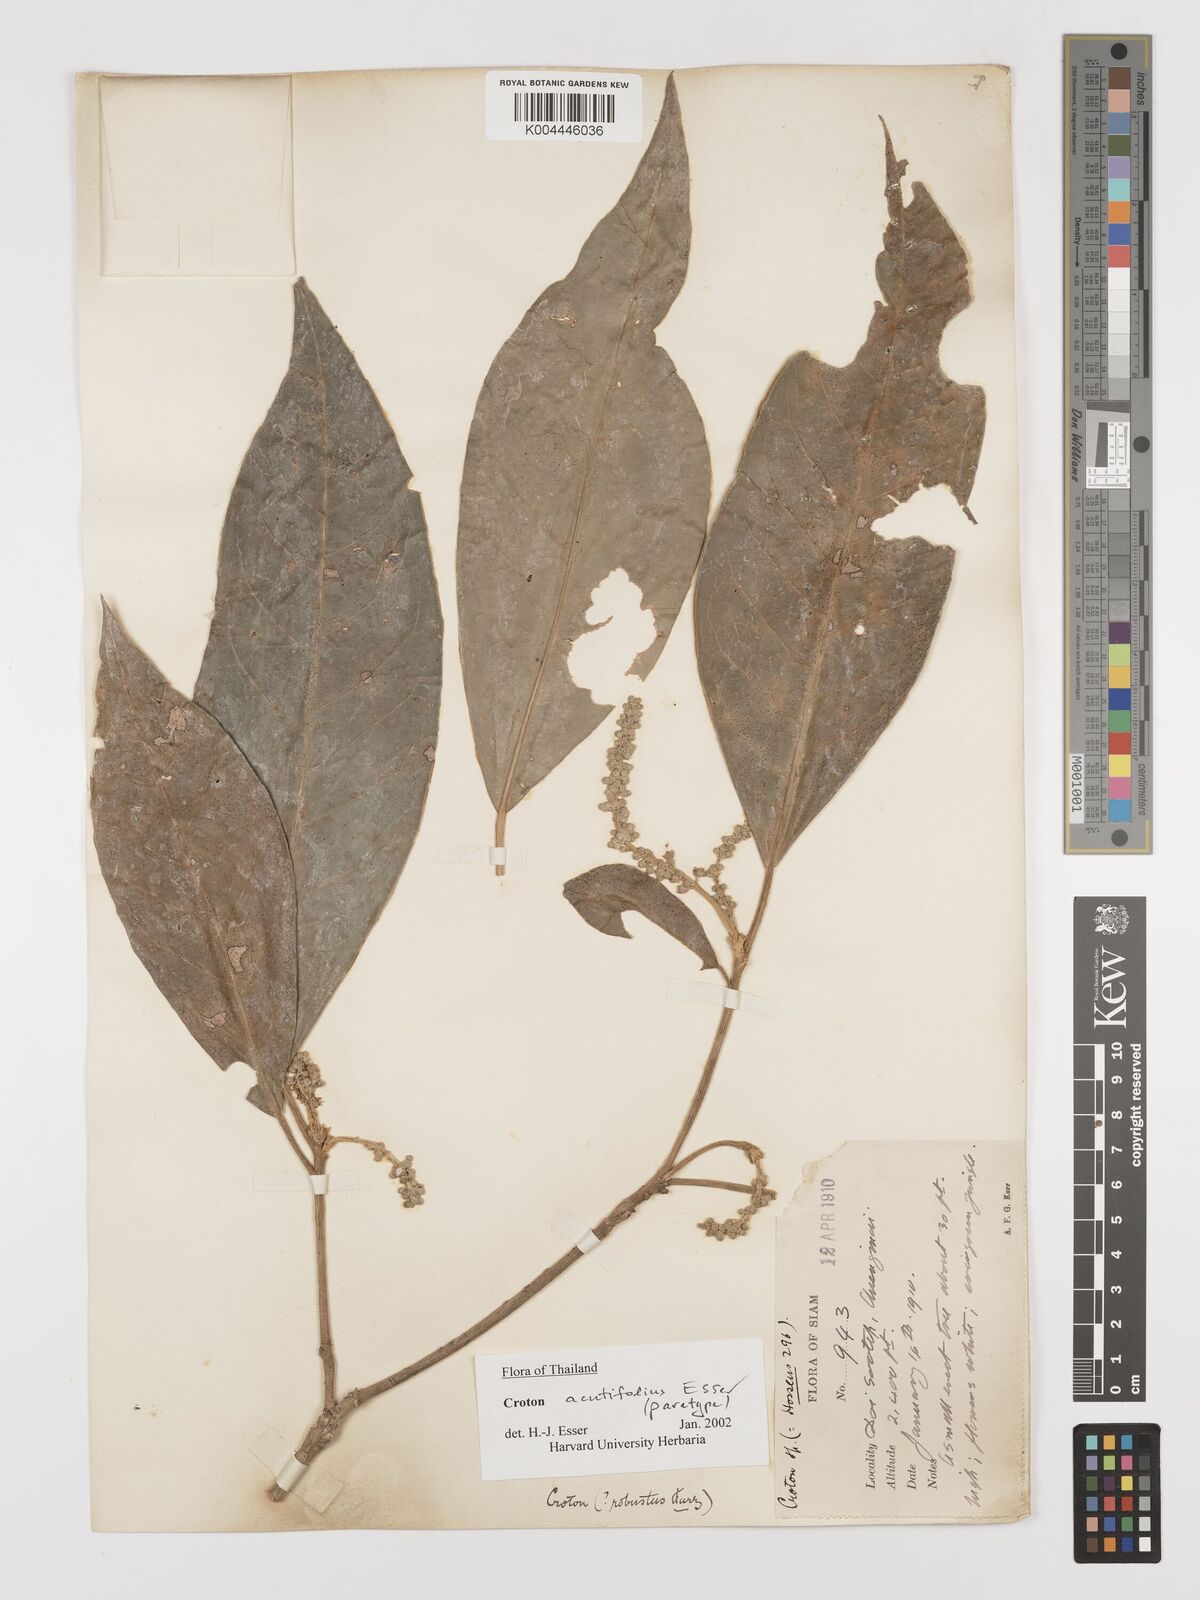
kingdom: Plantae
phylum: Tracheophyta
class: Magnoliopsida
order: Malpighiales
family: Euphorbiaceae
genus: Croton
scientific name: Croton acutifolius
